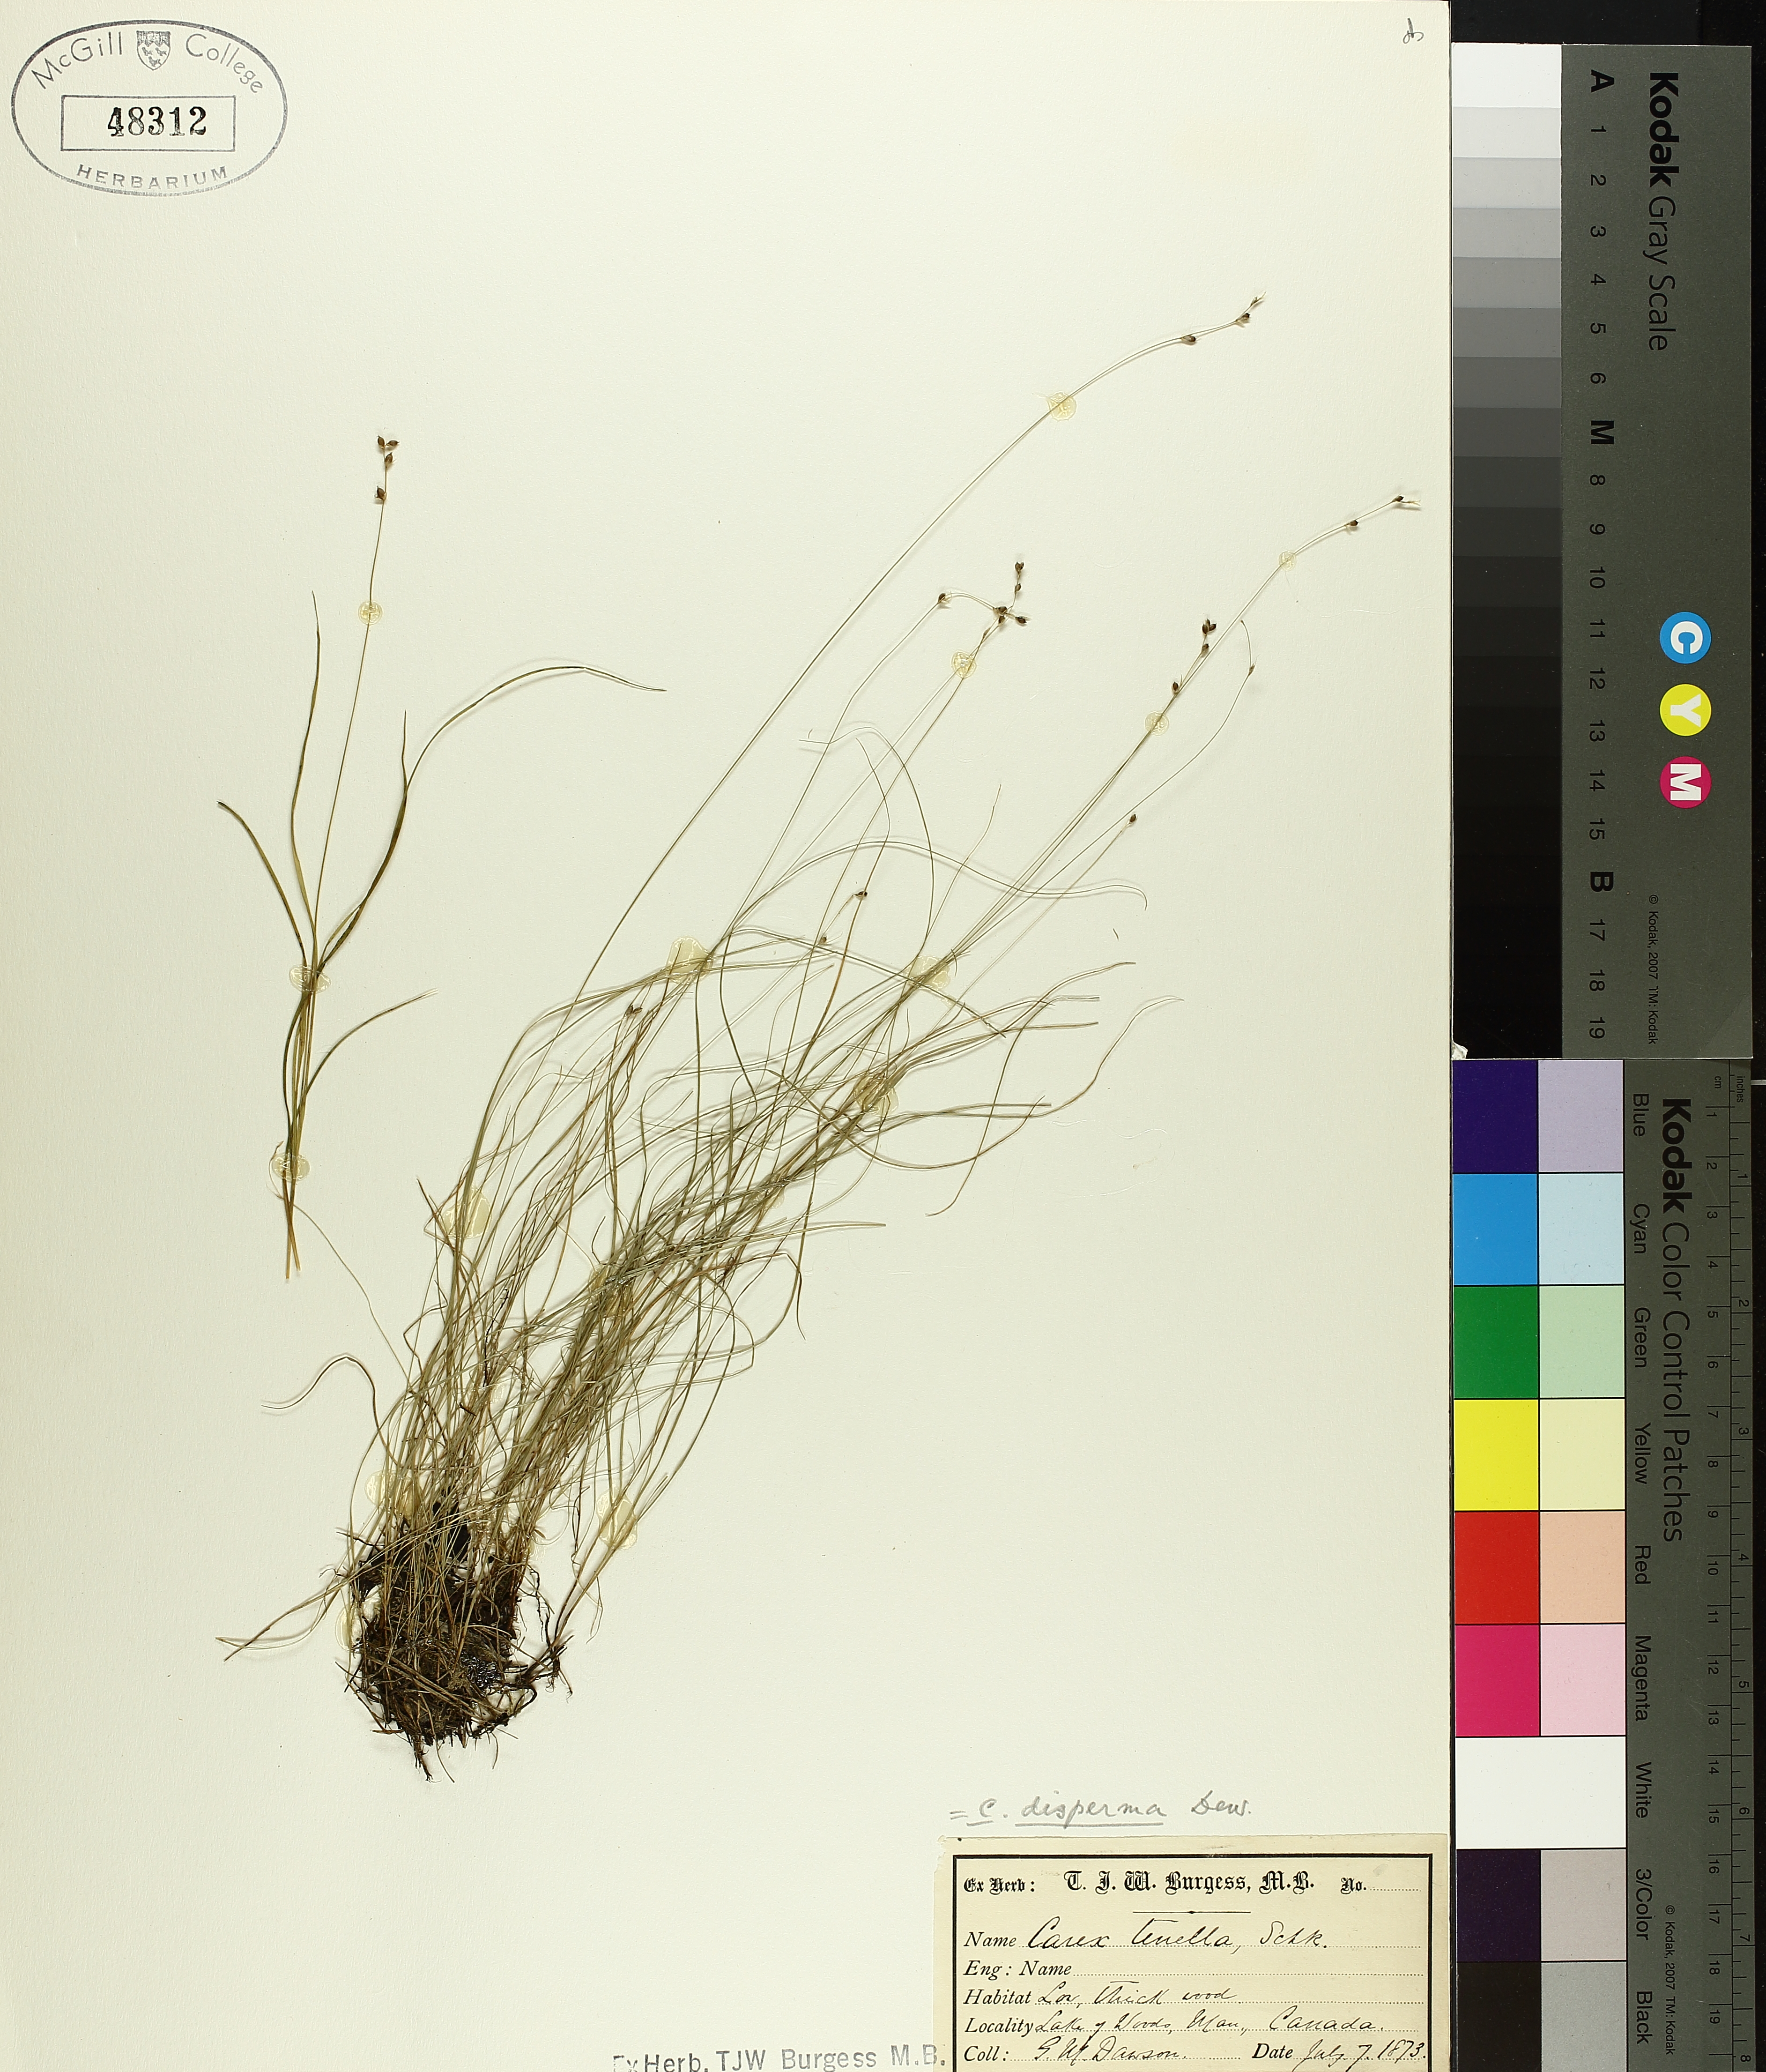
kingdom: Plantae
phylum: Tracheophyta
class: Liliopsida
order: Poales
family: Cyperaceae
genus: Carex
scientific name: Carex disperma
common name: Short-leaved sedge
